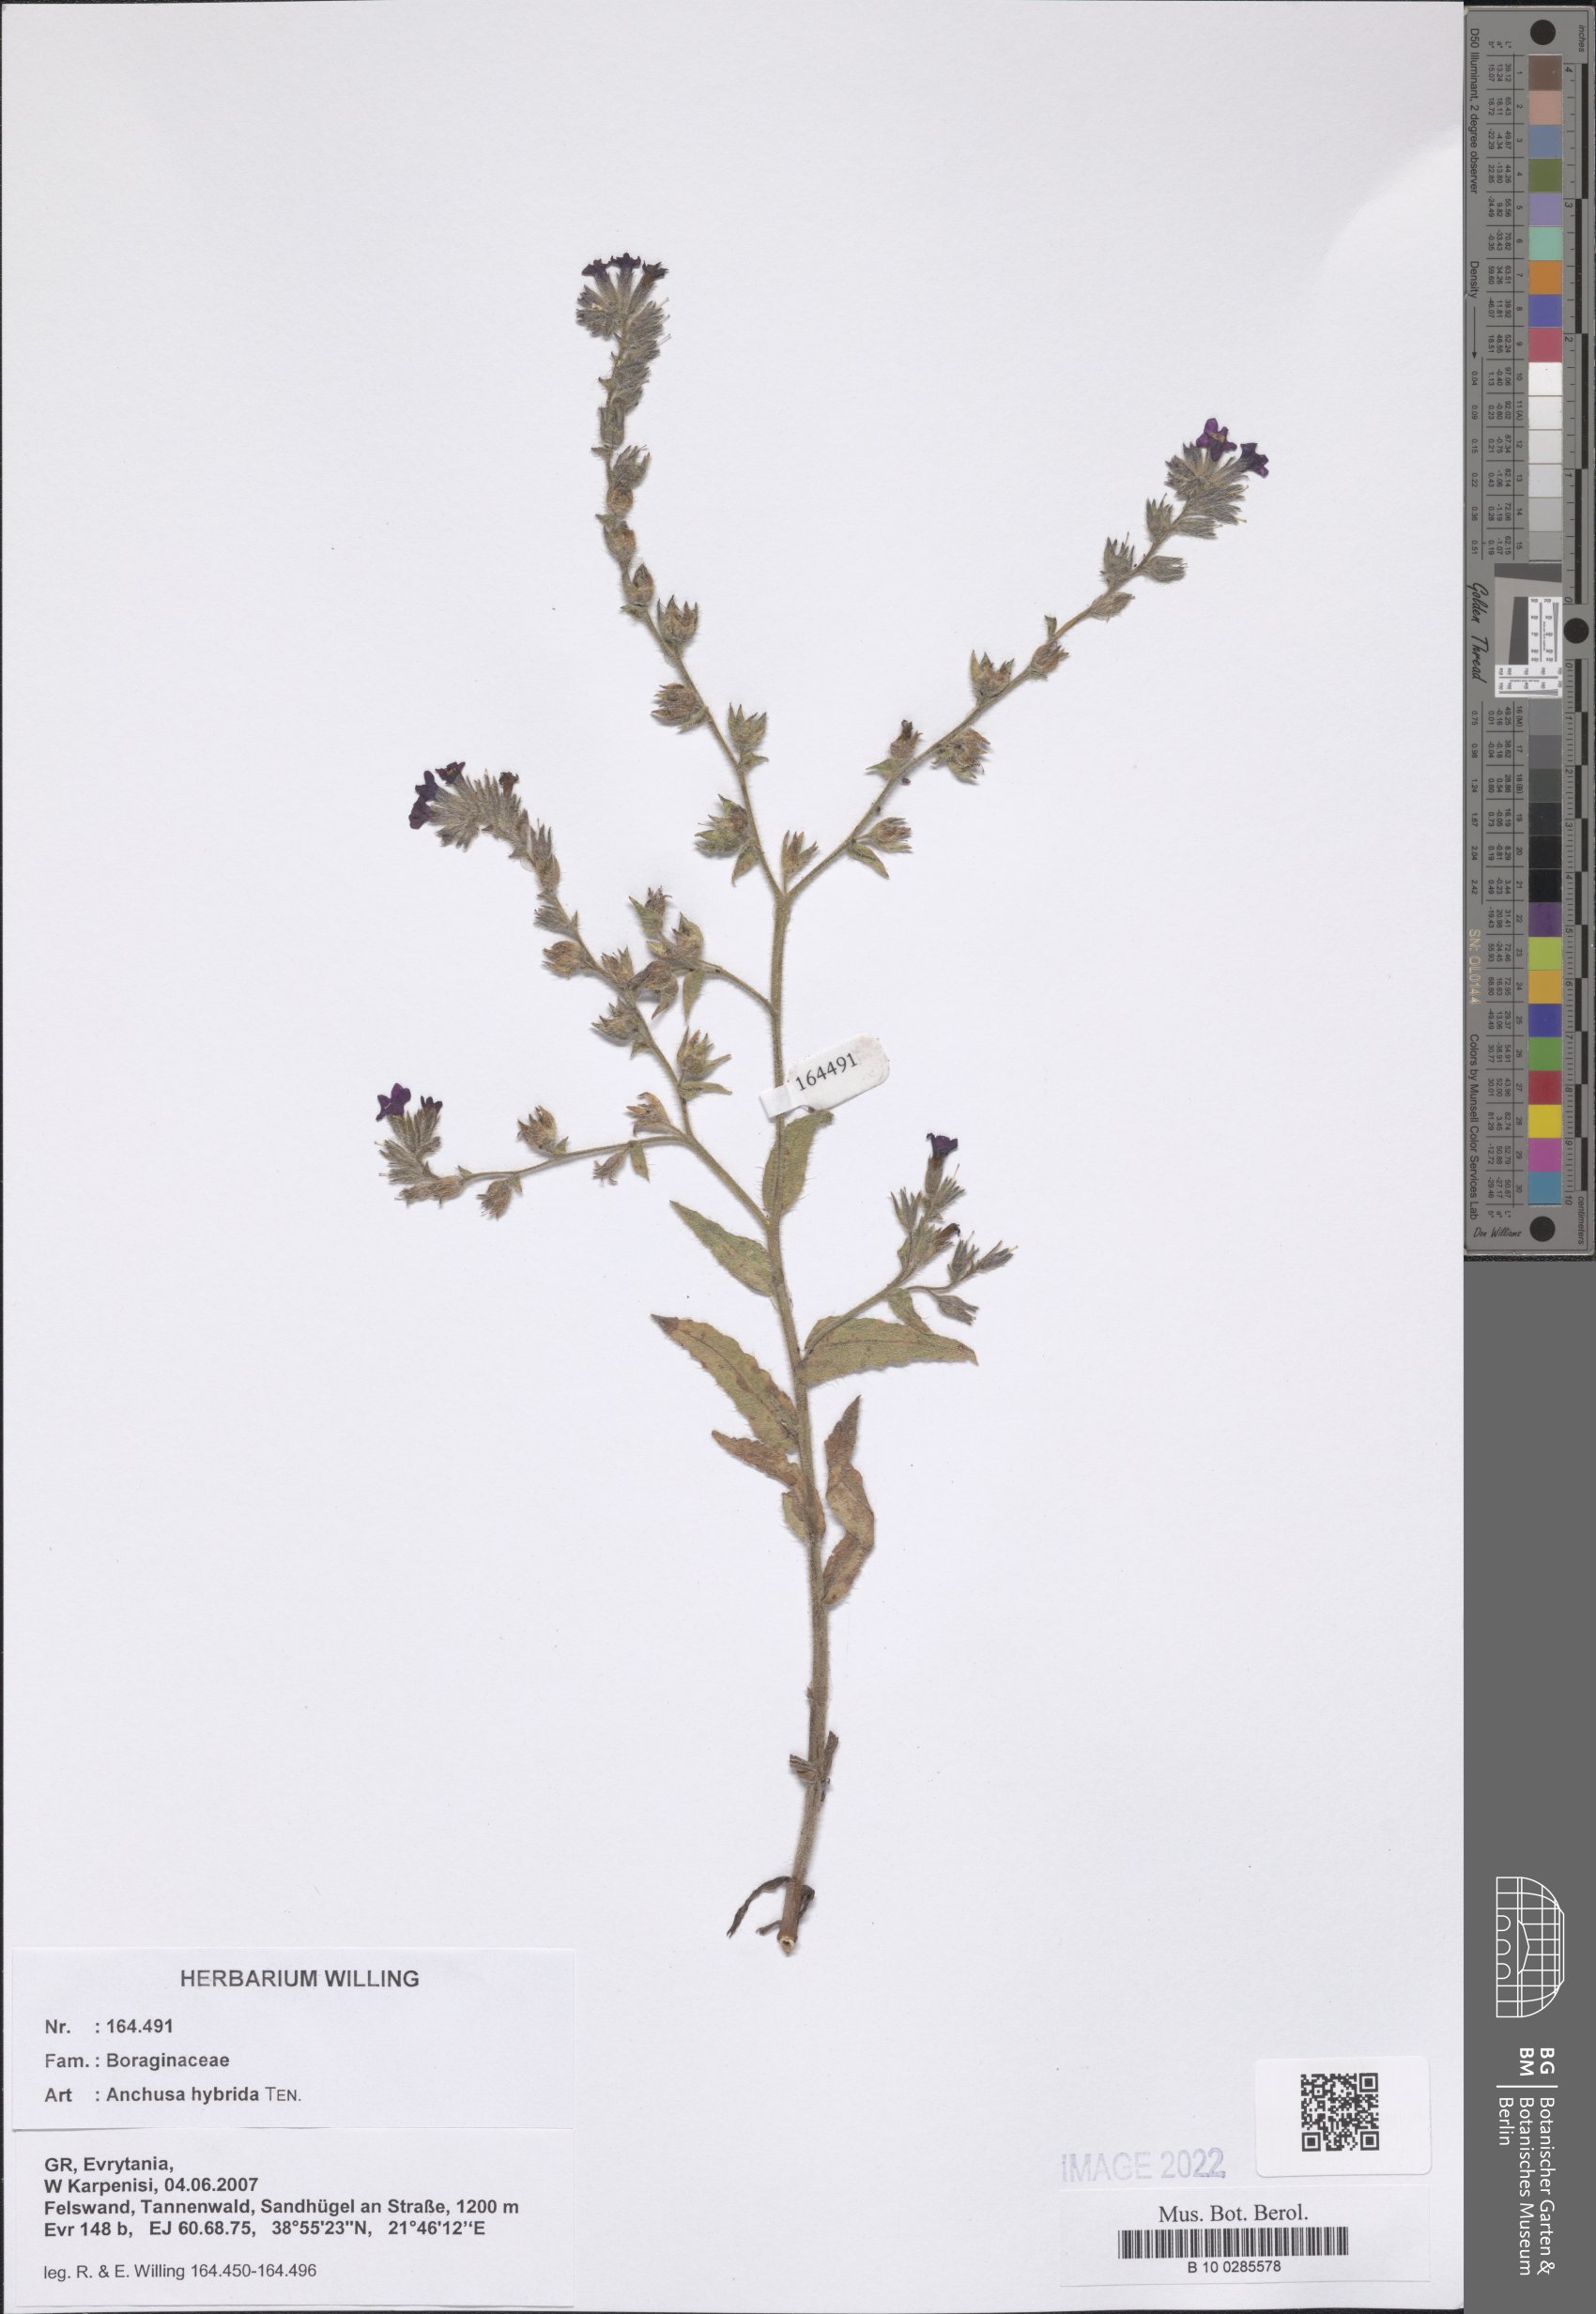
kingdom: Plantae
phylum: Tracheophyta
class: Magnoliopsida
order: Boraginales
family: Boraginaceae
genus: Anchusa
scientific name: Anchusa hybrida
